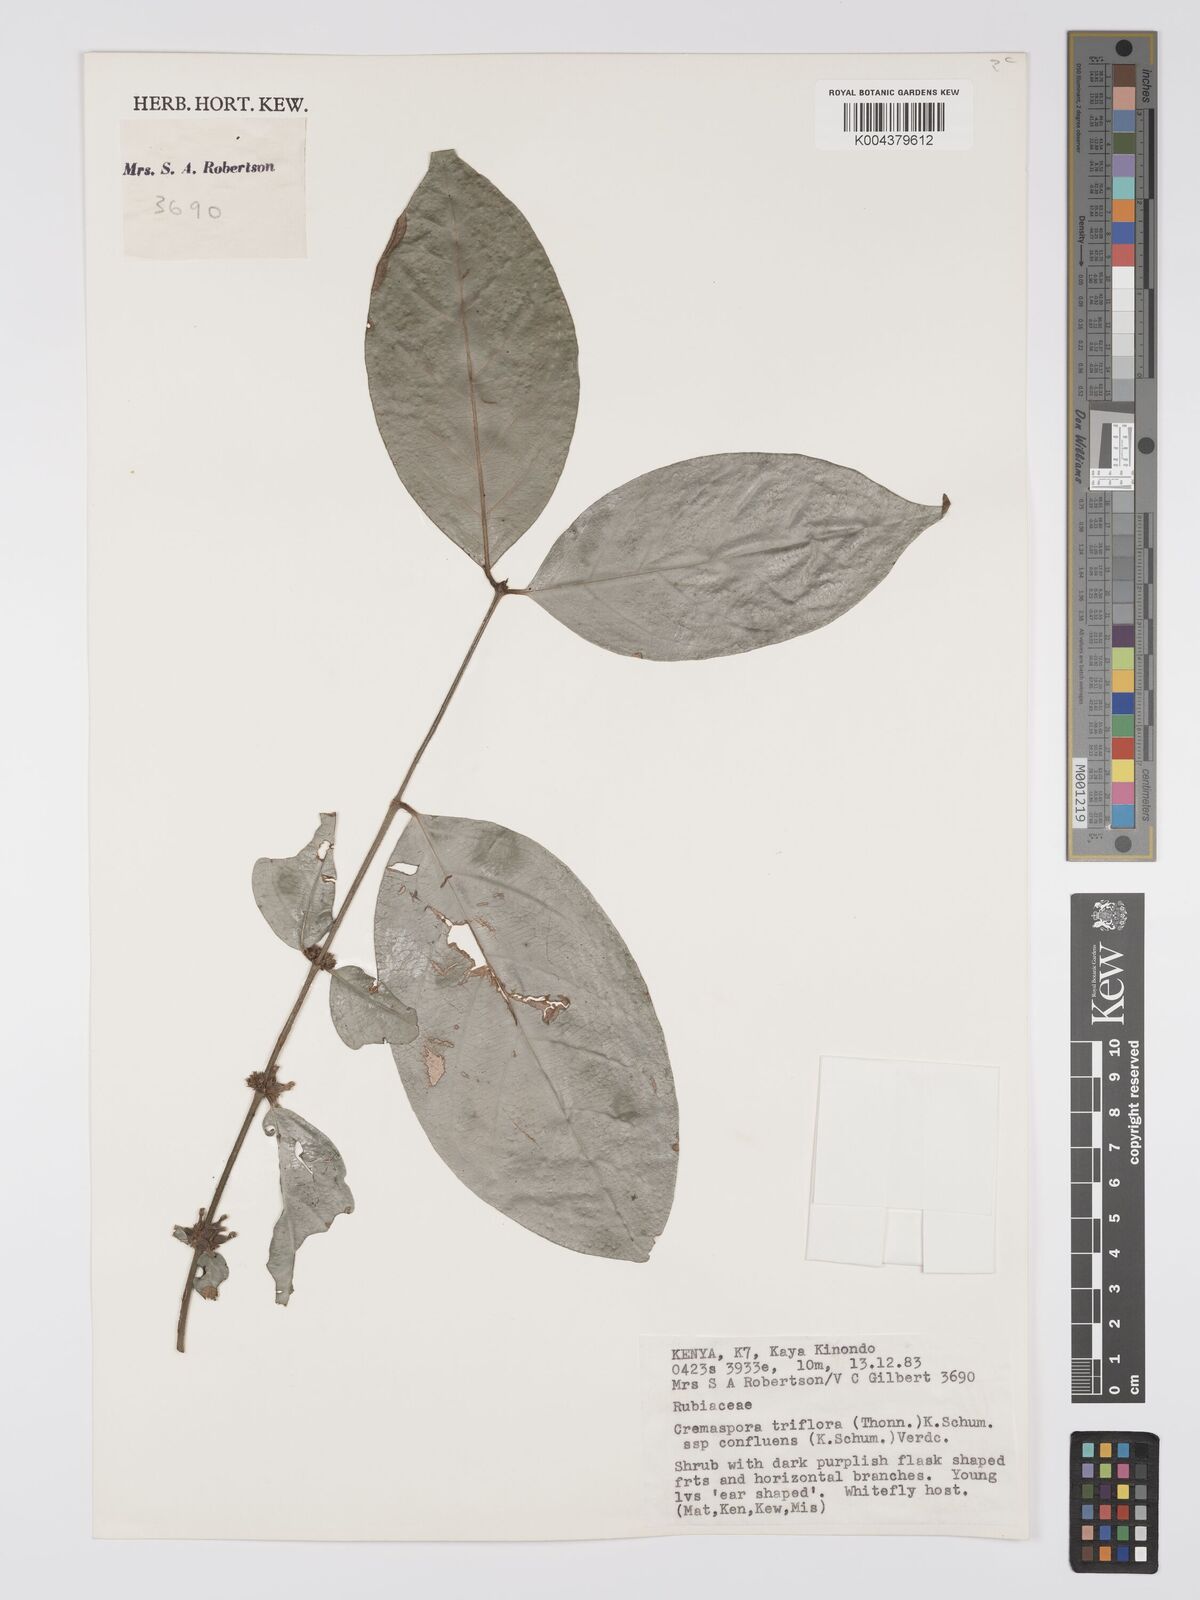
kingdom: Plantae
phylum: Tracheophyta
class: Magnoliopsida
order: Gentianales
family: Rubiaceae
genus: Cremaspora
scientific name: Cremaspora triflora
